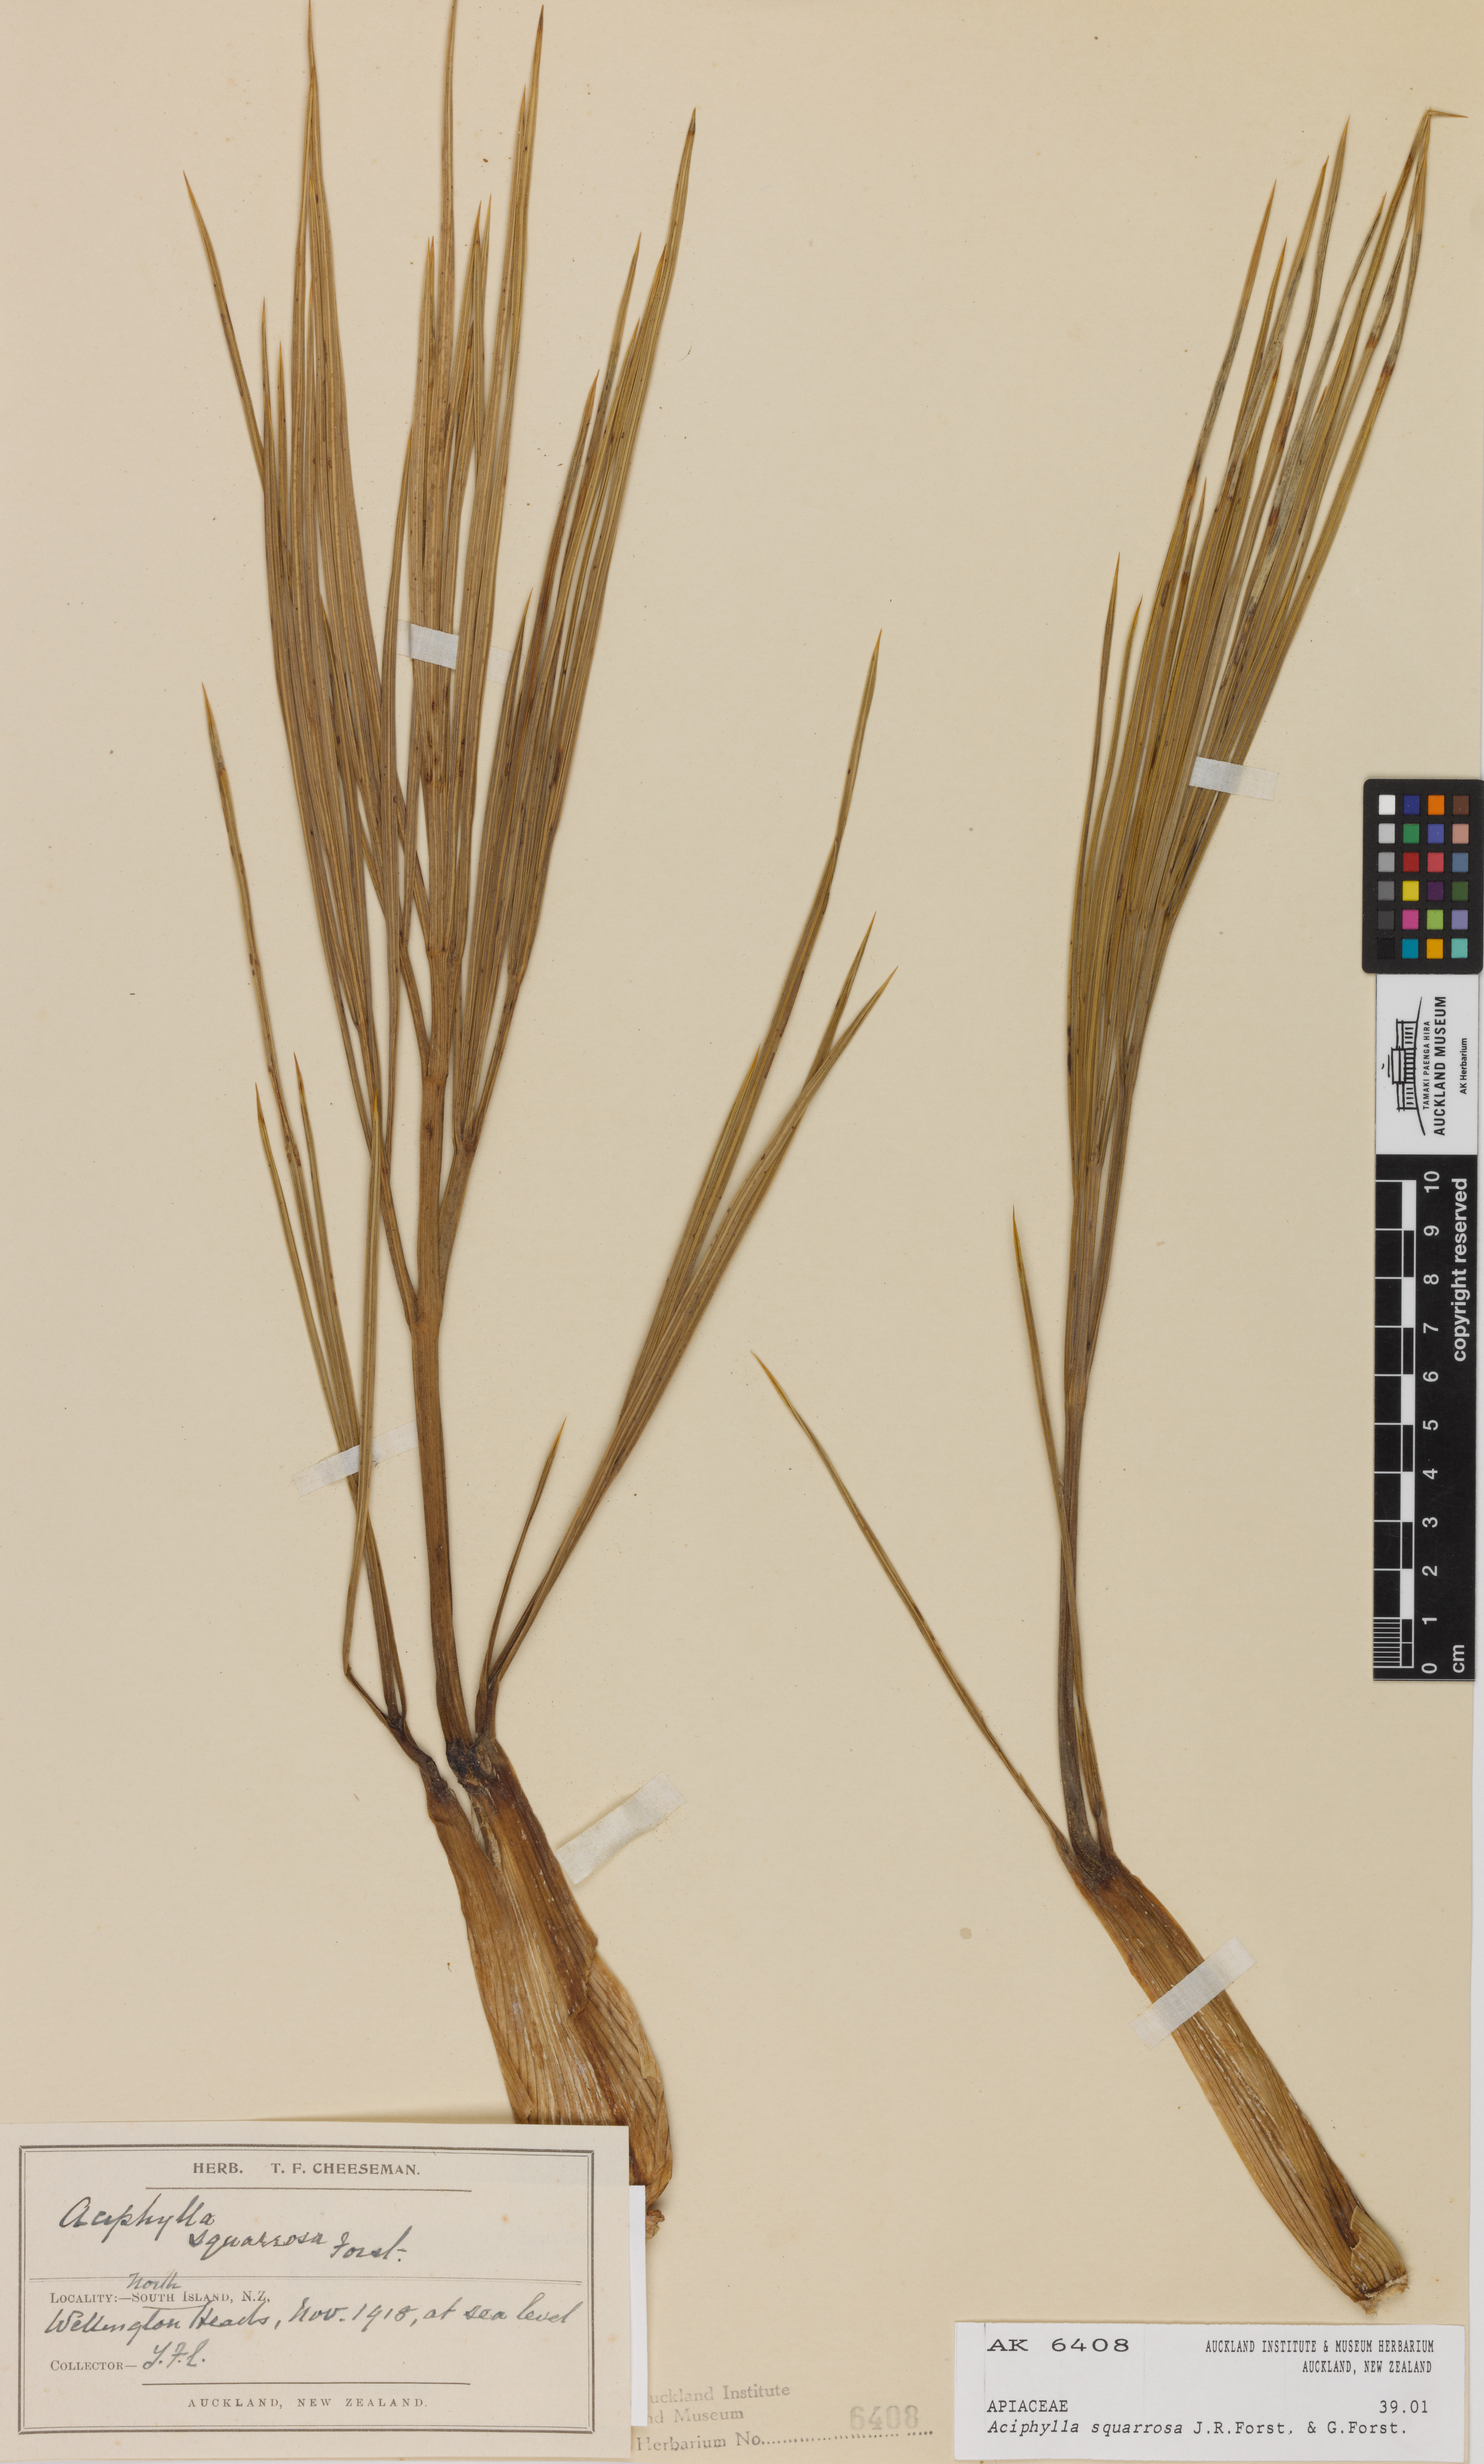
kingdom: Plantae
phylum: Tracheophyta
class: Magnoliopsida
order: Apiales
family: Apiaceae
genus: Aciphylla
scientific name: Aciphylla squarrosa
